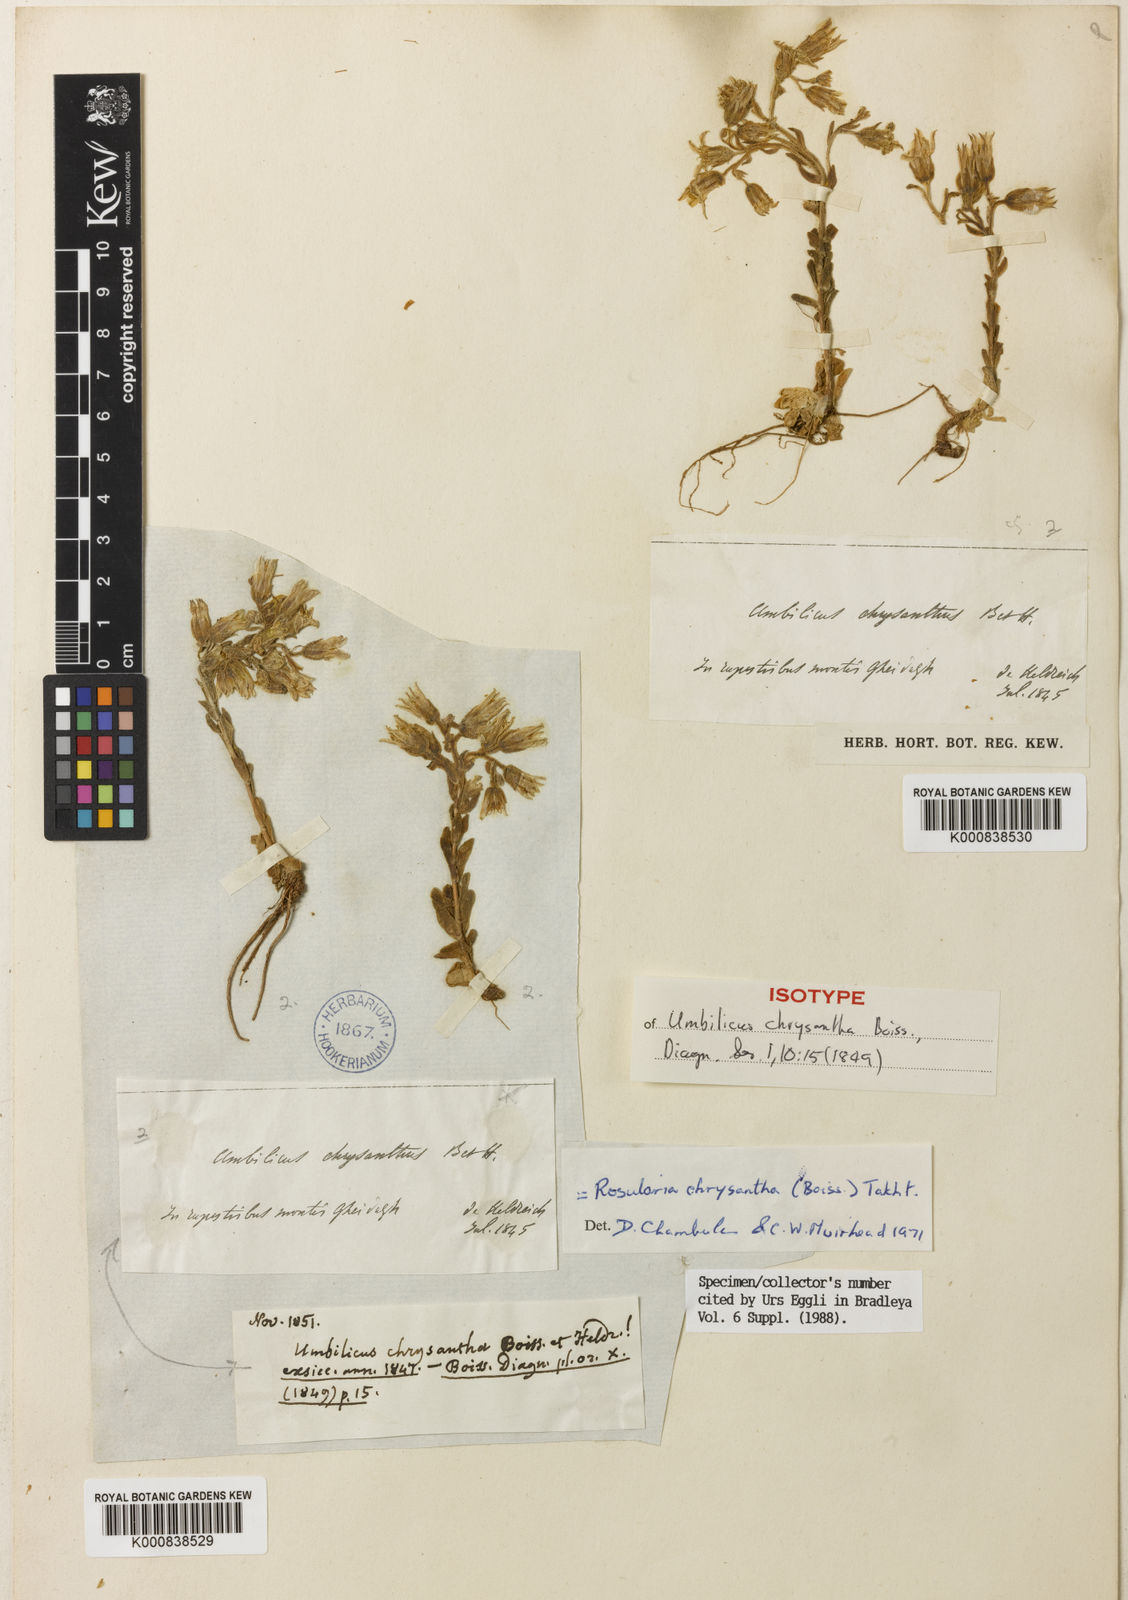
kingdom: Plantae
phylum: Tracheophyta
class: Magnoliopsida
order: Saxifragales
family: Crassulaceae
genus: Prometheum
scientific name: Prometheum chrysanthum
